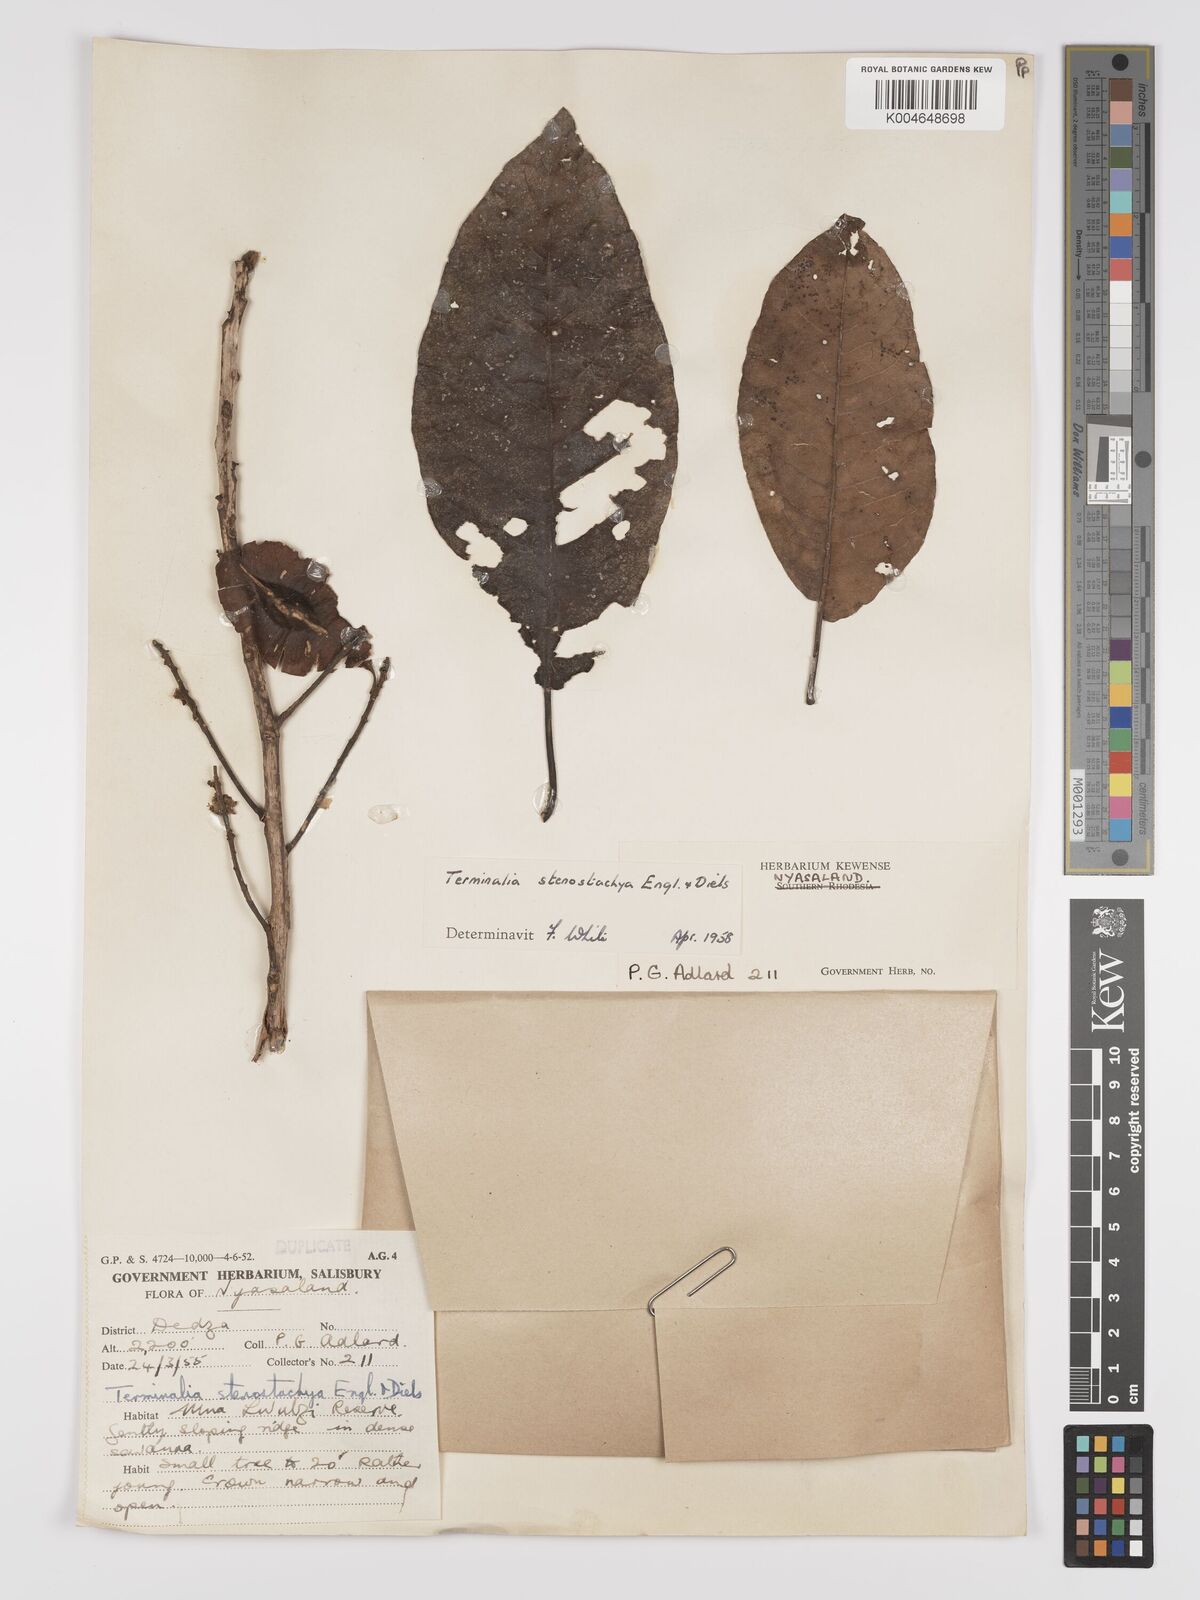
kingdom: Plantae
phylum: Tracheophyta
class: Magnoliopsida
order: Myrtales
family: Combretaceae
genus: Terminalia
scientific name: Terminalia stenostachya
